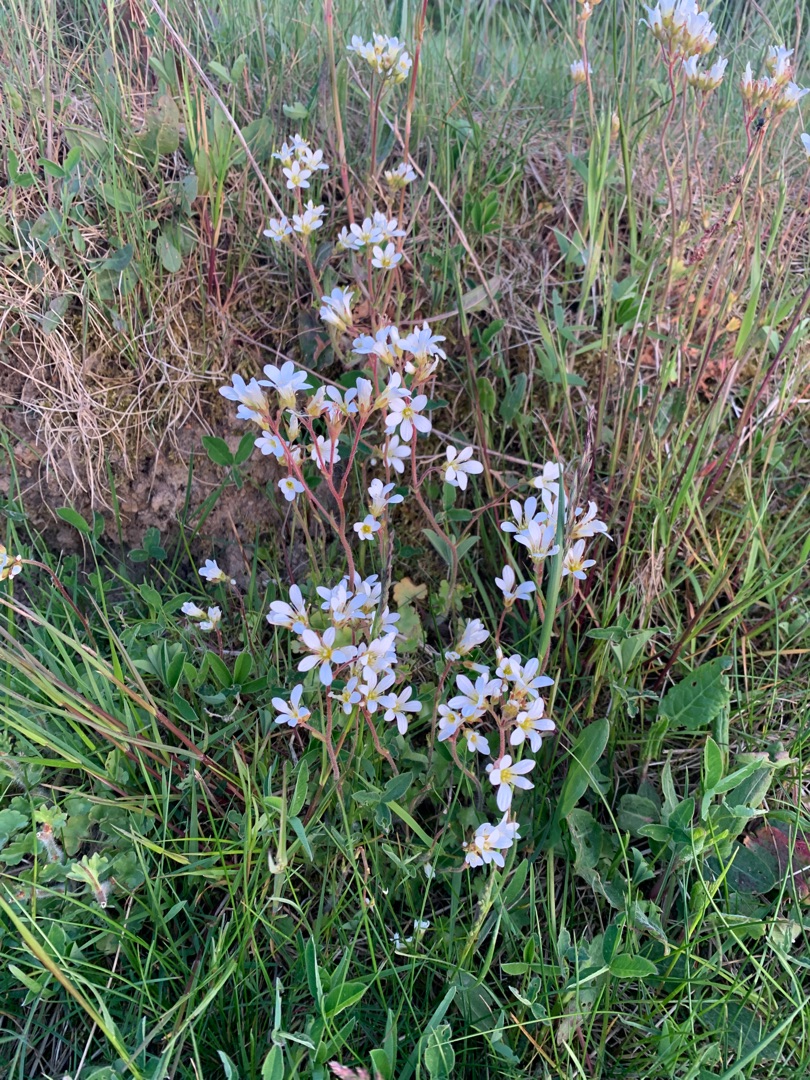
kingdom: Plantae
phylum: Tracheophyta
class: Magnoliopsida
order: Saxifragales
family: Saxifragaceae
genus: Saxifraga
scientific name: Saxifraga granulata
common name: Kornet stenbræk
